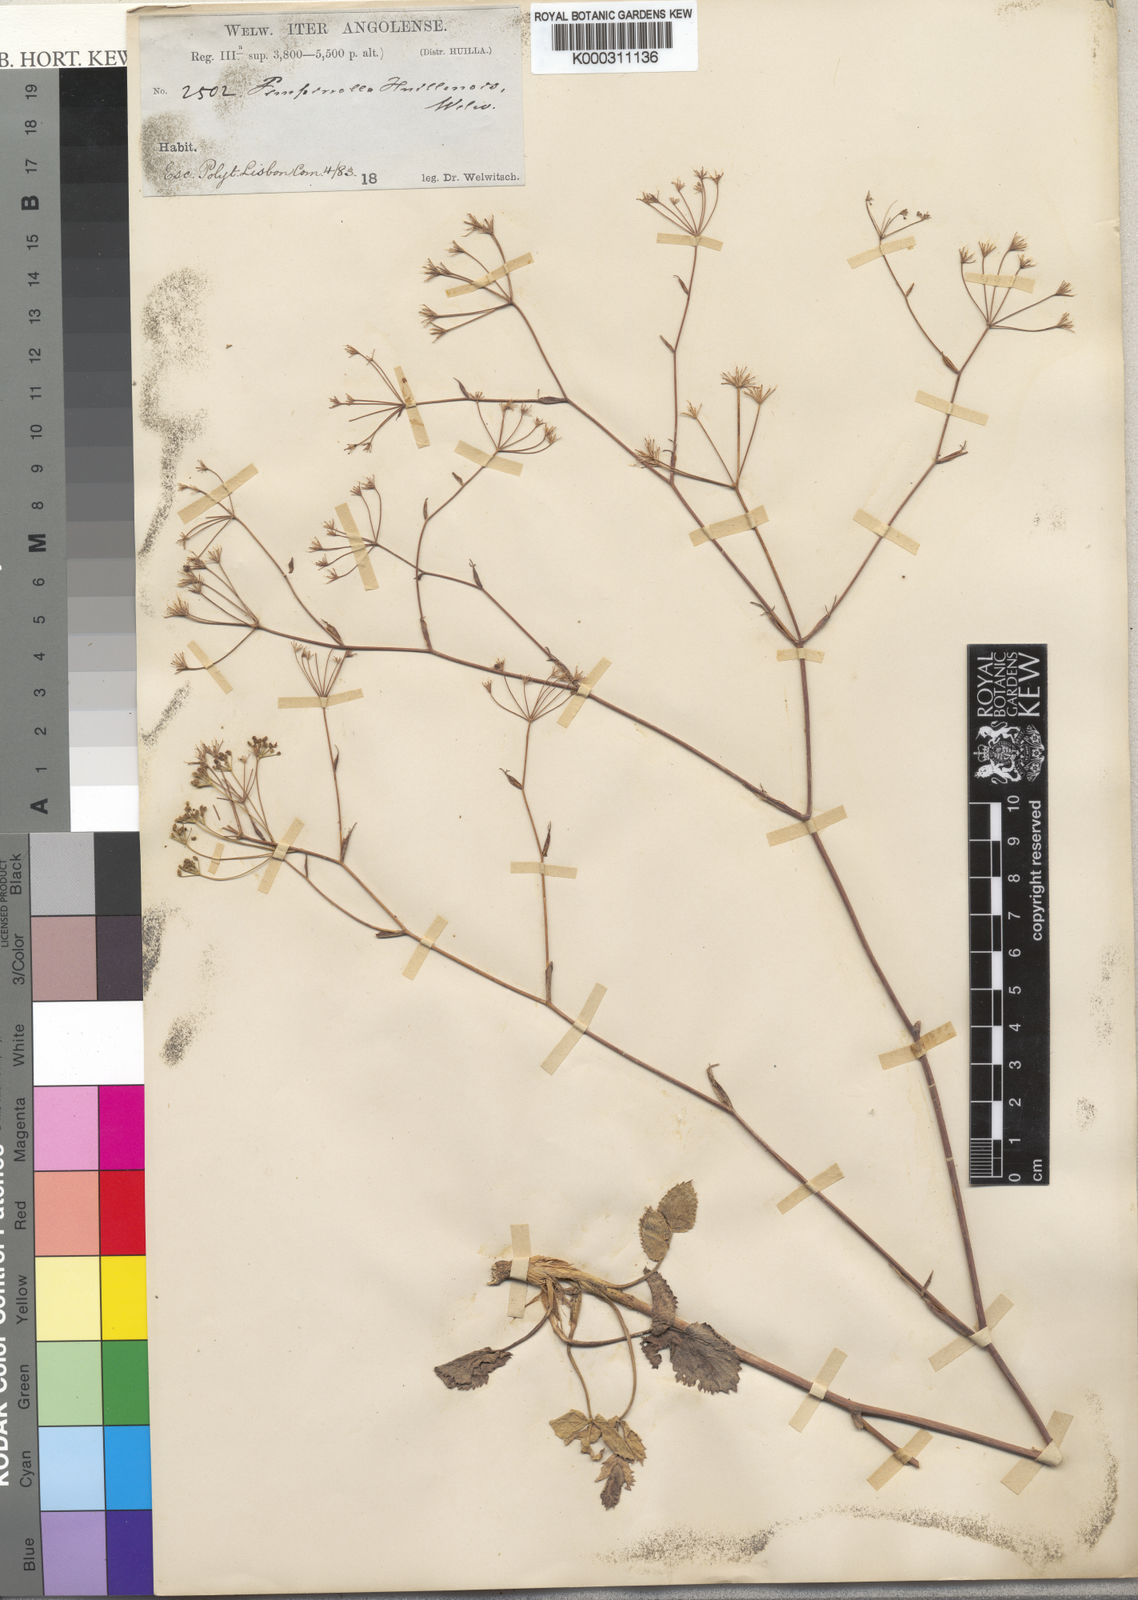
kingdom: Plantae
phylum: Tracheophyta
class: Magnoliopsida
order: Apiales
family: Apiaceae
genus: Pimpinella
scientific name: Pimpinella
